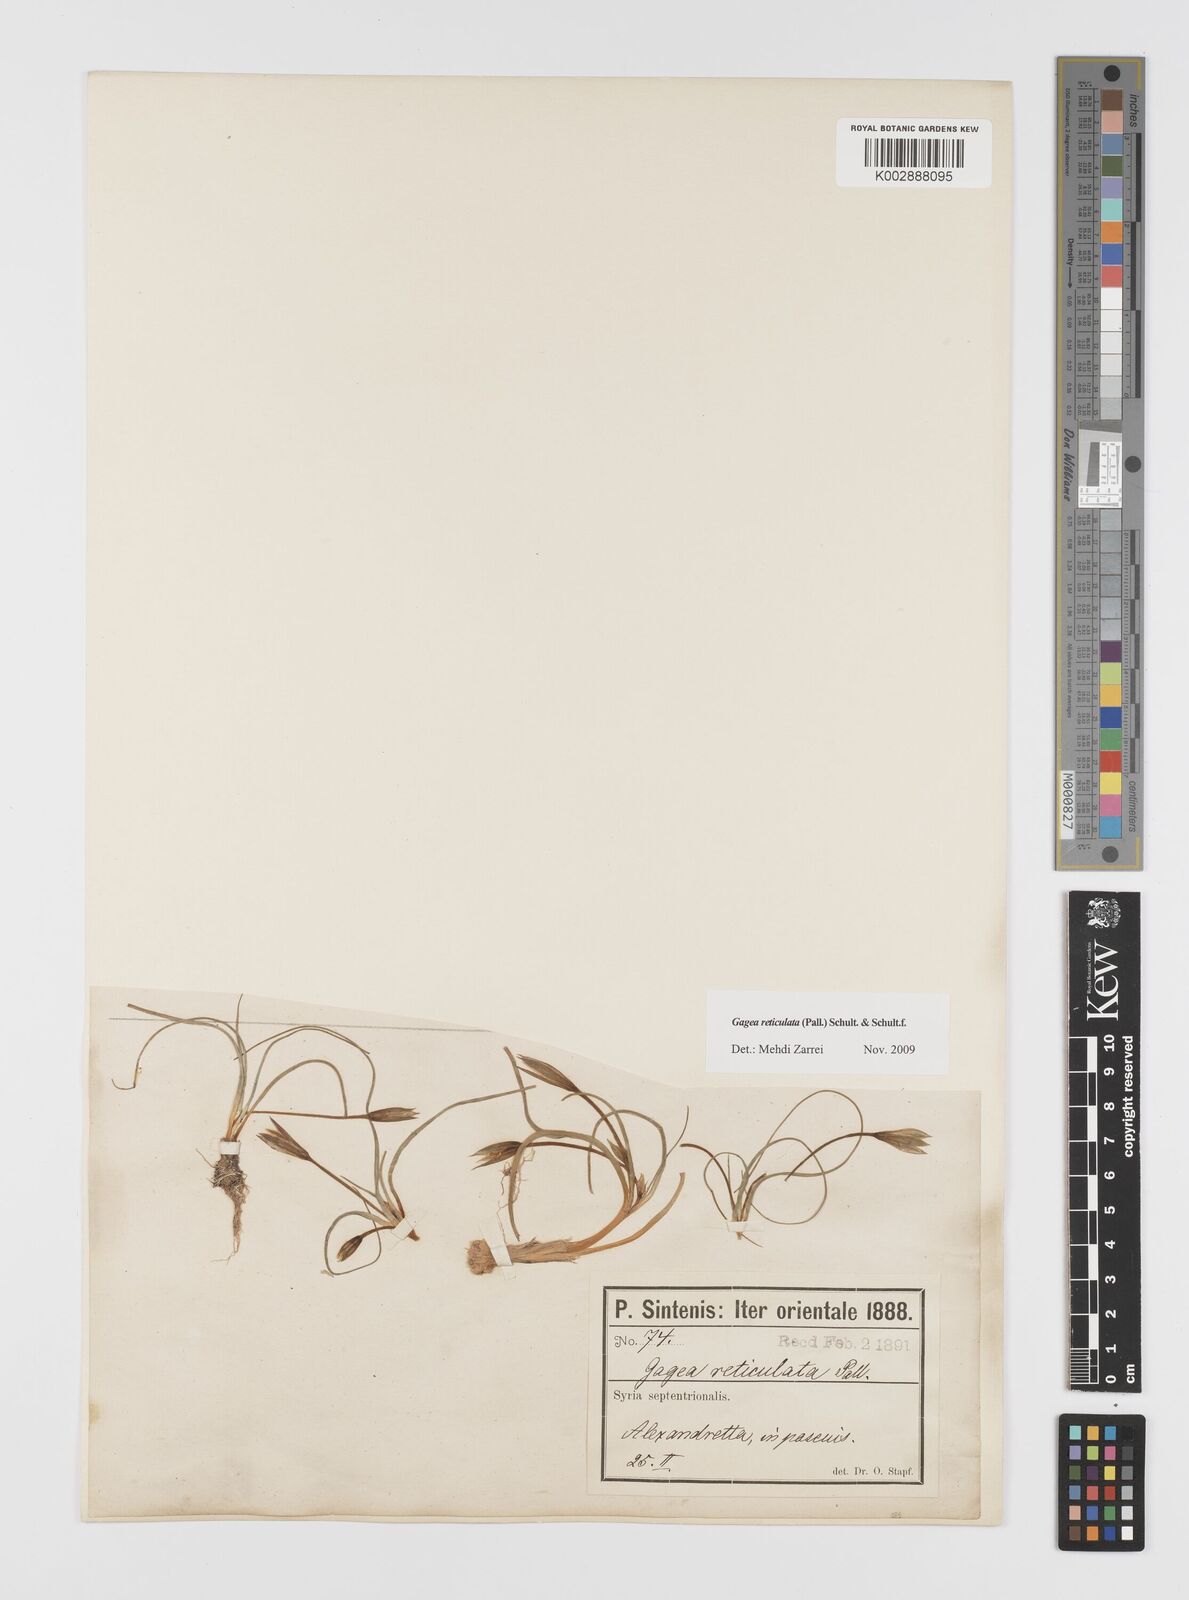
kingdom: Plantae
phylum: Tracheophyta
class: Liliopsida
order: Liliales
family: Liliaceae
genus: Gagea
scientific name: Gagea reticulata
